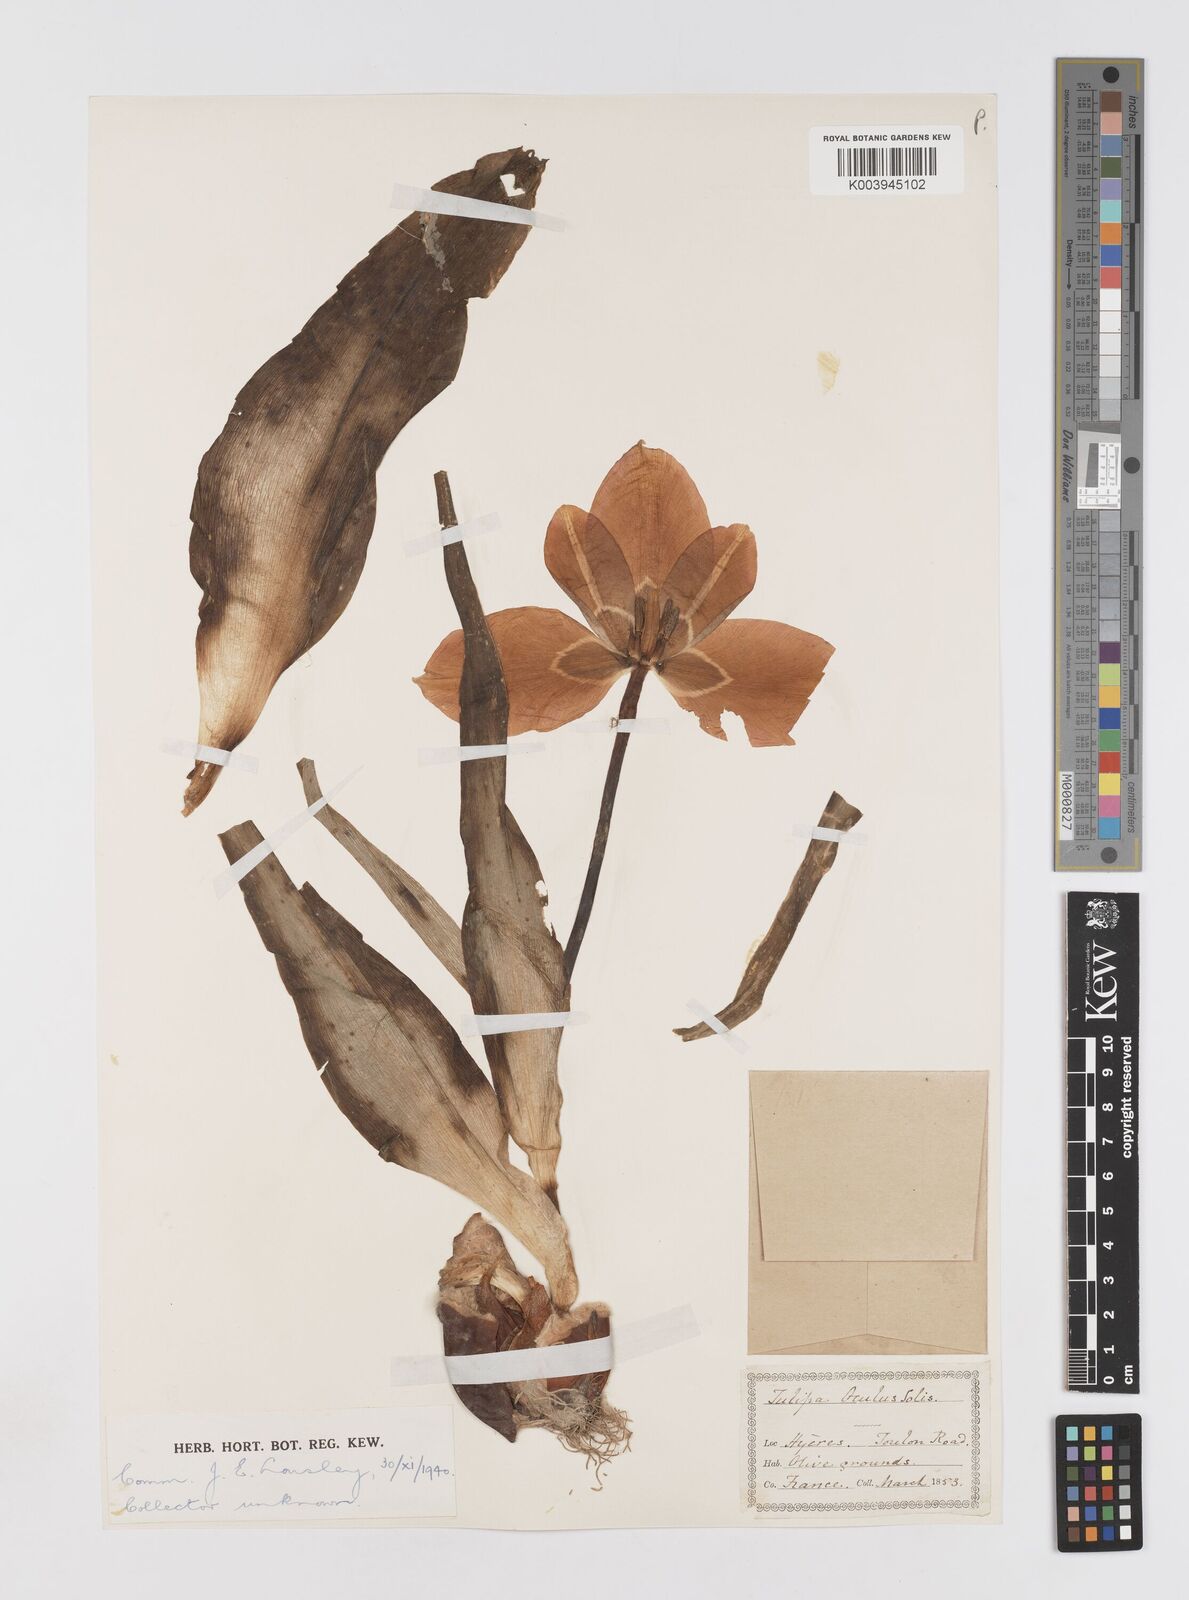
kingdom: Plantae
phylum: Tracheophyta
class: Liliopsida
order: Liliales
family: Liliaceae
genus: Tulipa
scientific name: Tulipa
